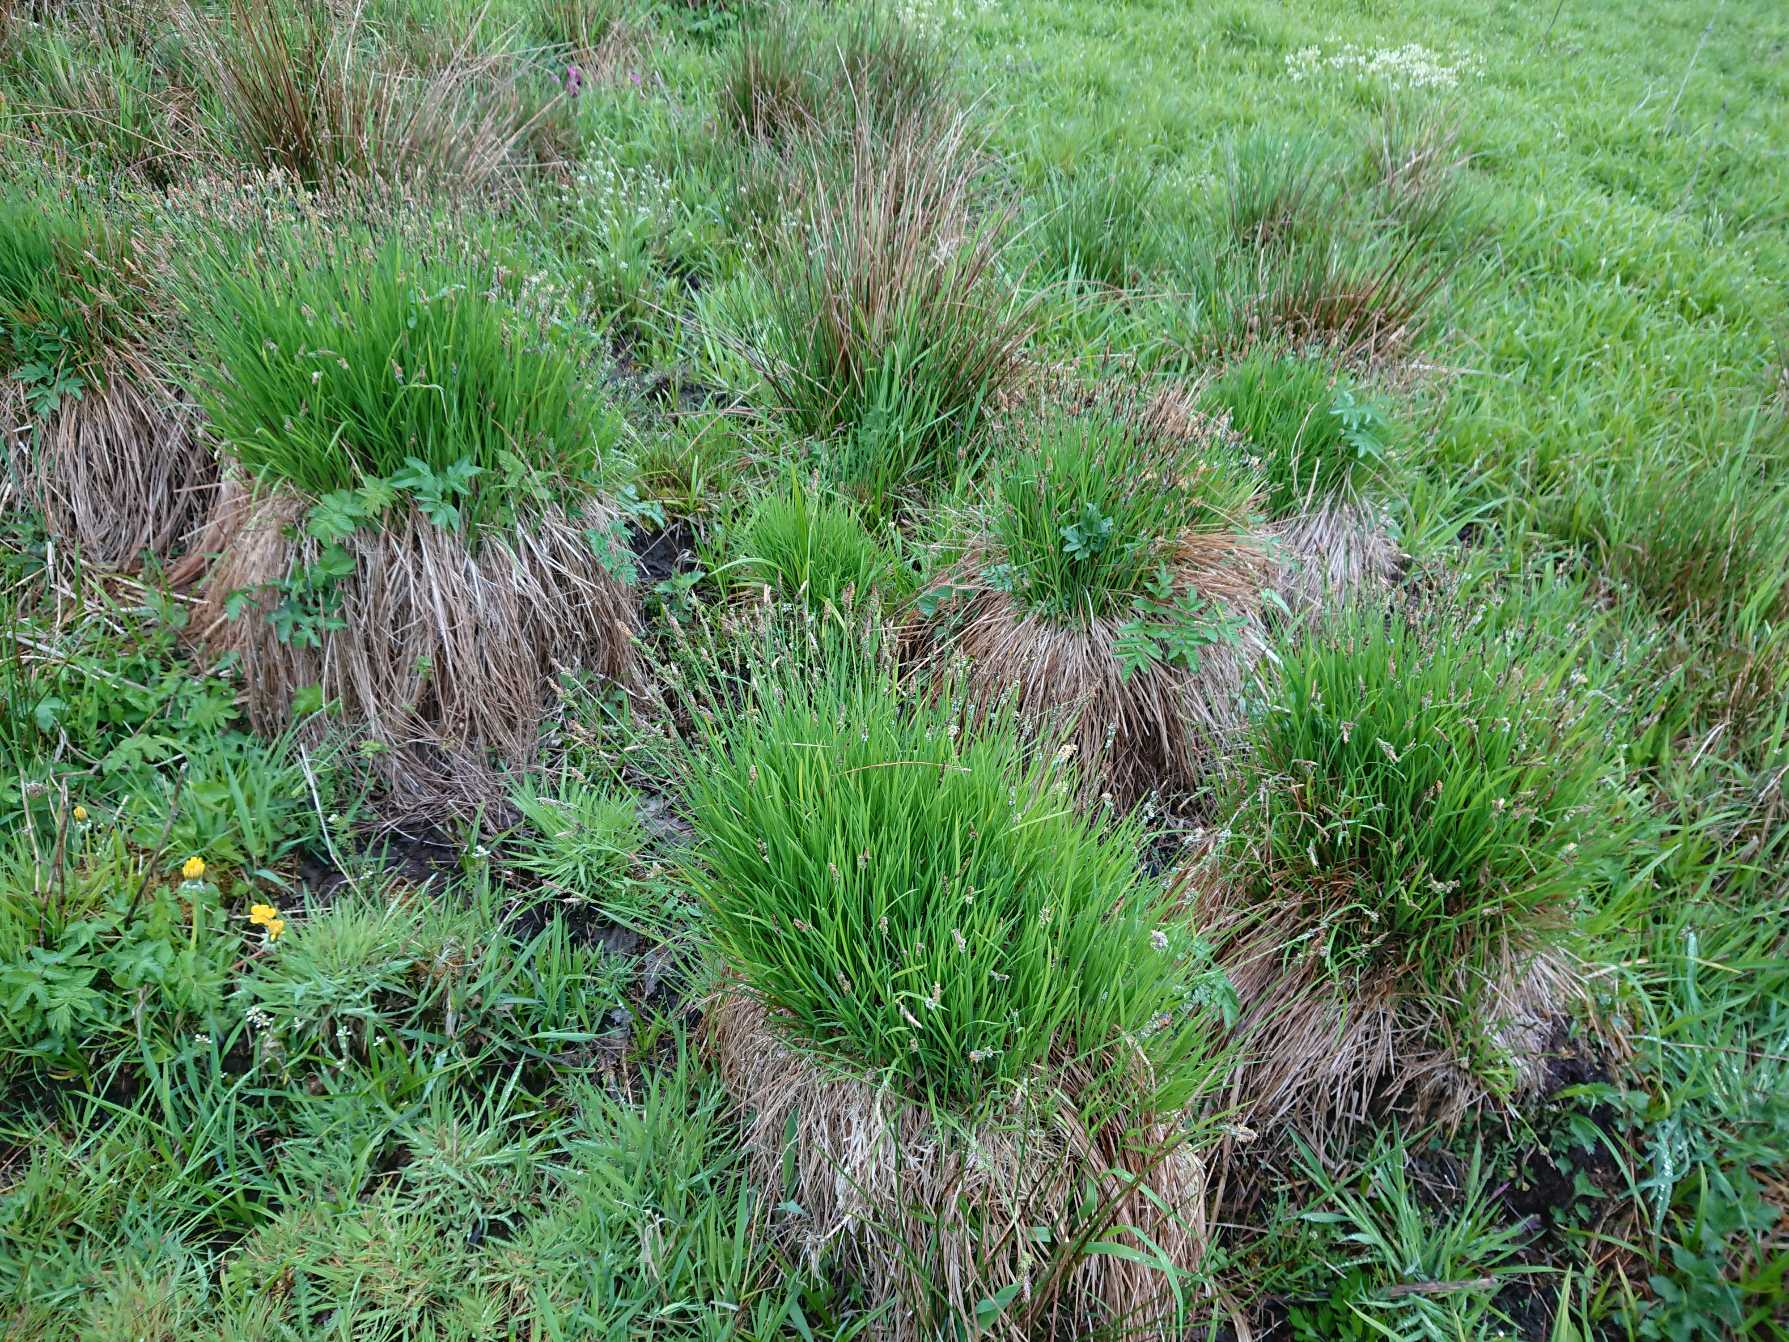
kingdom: Plantae
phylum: Tracheophyta
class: Liliopsida
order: Poales
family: Cyperaceae
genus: Carex
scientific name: Carex cespitosa
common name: Tue-star
